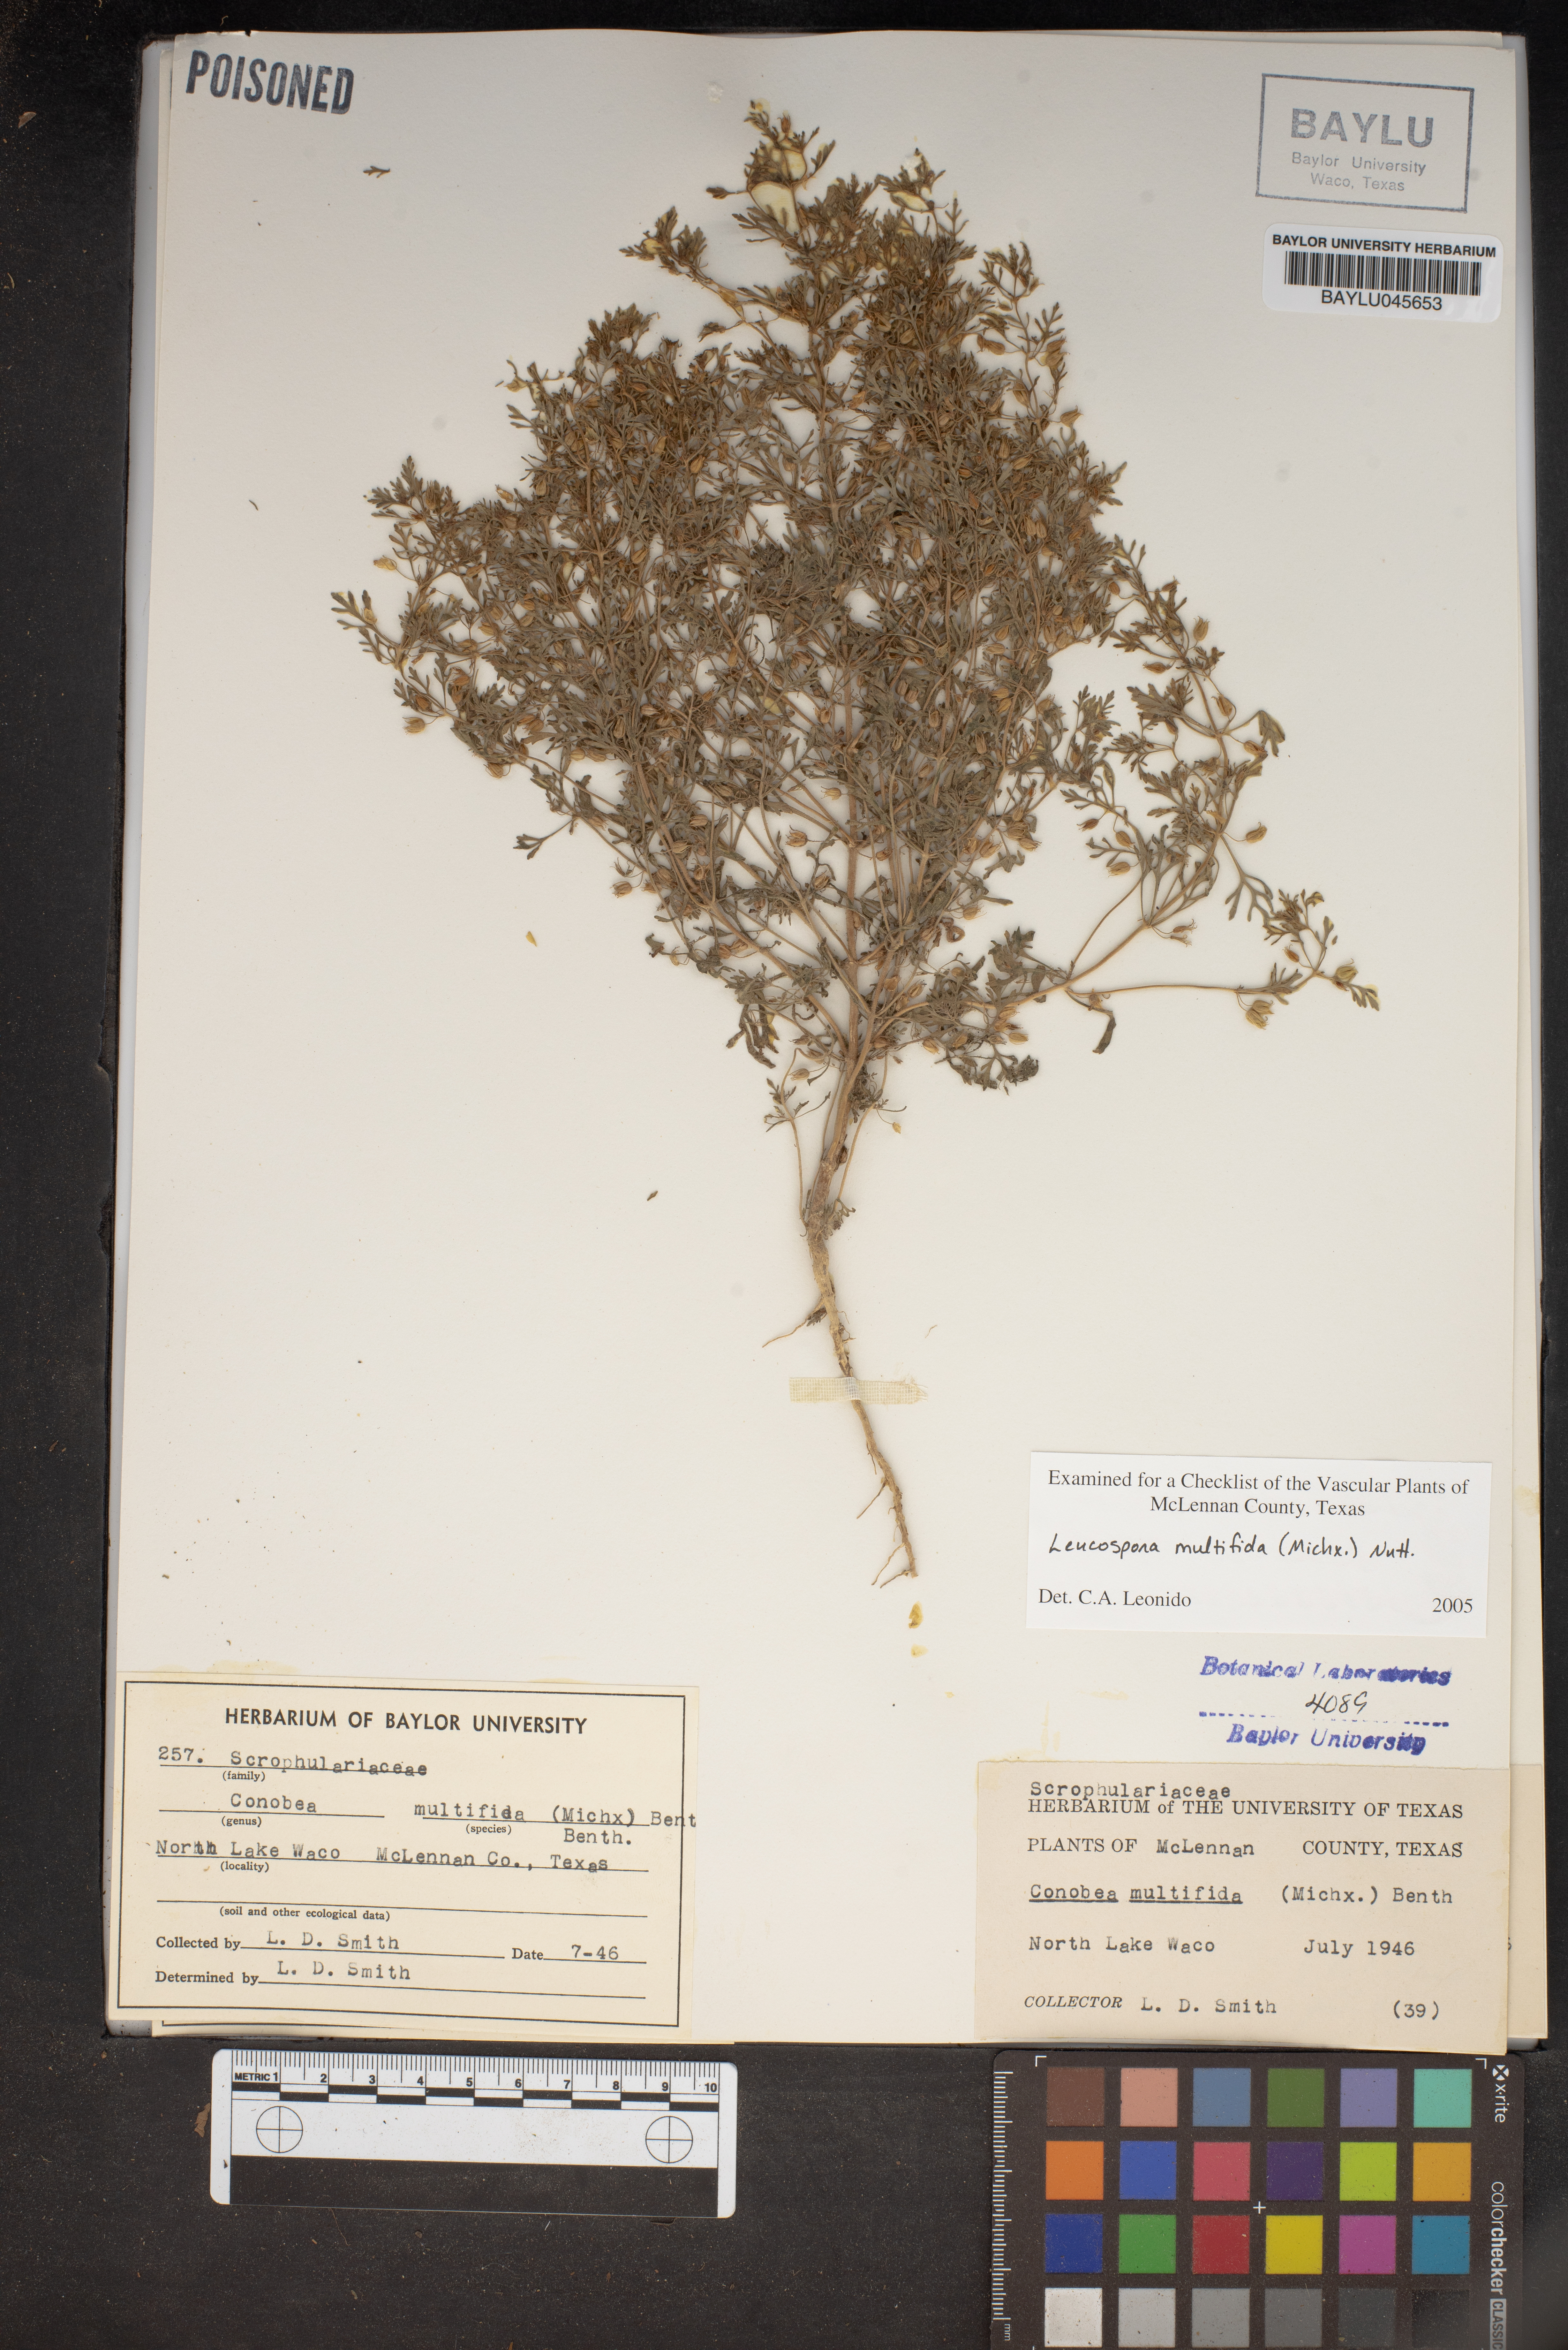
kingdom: Plantae
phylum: Tracheophyta
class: Magnoliopsida
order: Lamiales
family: Plantaginaceae
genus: Leucospora
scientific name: Leucospora multifida
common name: Narrow-leaf paleseed
